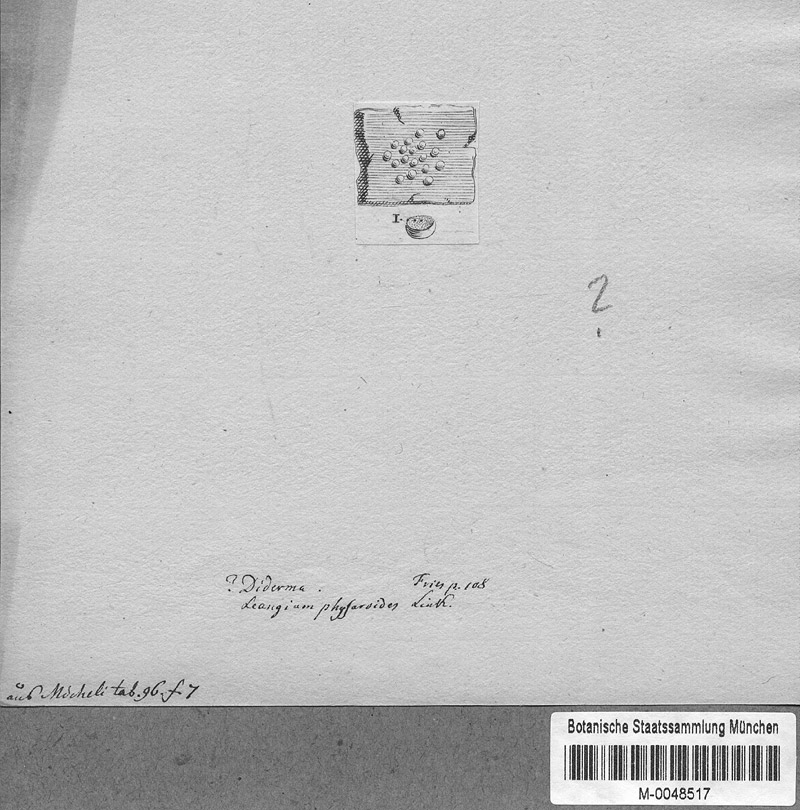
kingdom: Protozoa
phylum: Mycetozoa
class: Myxomycetes
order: Physarales
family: Didymiaceae
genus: Diderma
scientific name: Diderma
